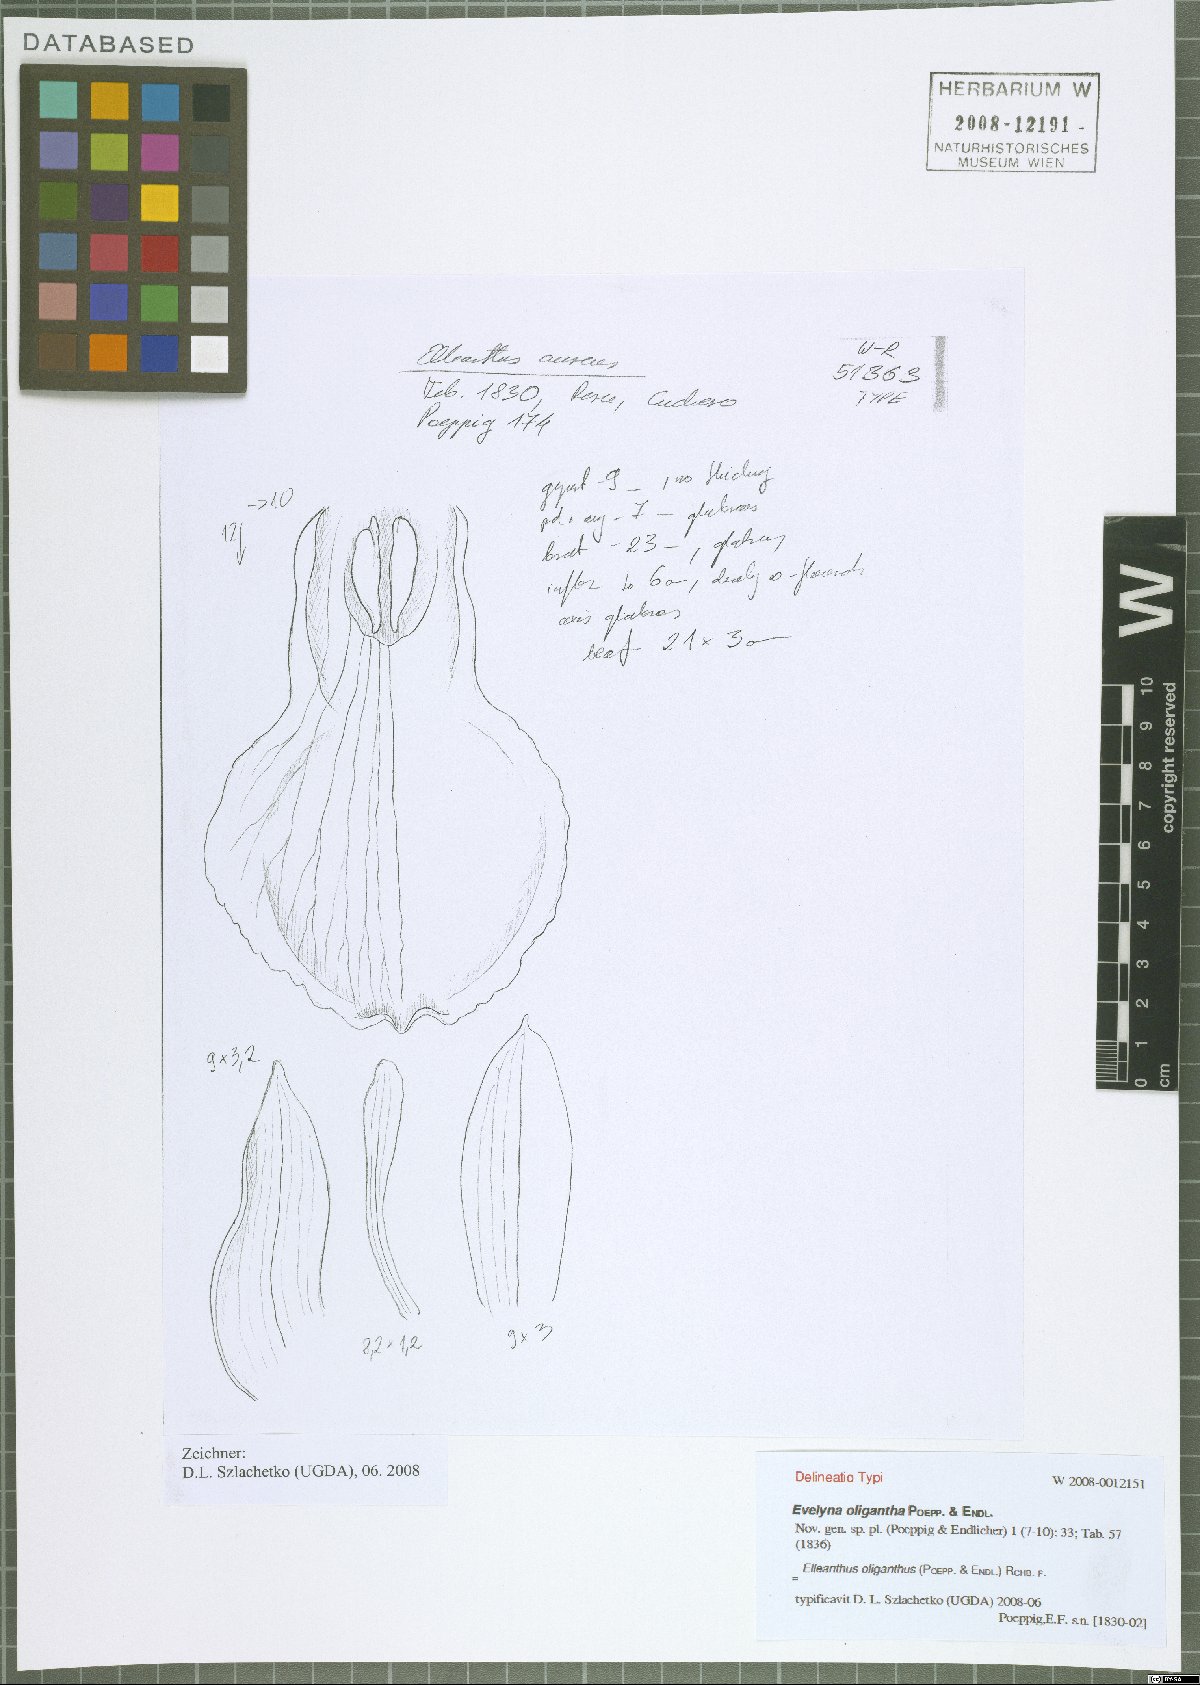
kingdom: Plantae
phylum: Tracheophyta
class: Liliopsida
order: Asparagales
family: Orchidaceae
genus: Elleanthus
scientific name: Elleanthus aureus
